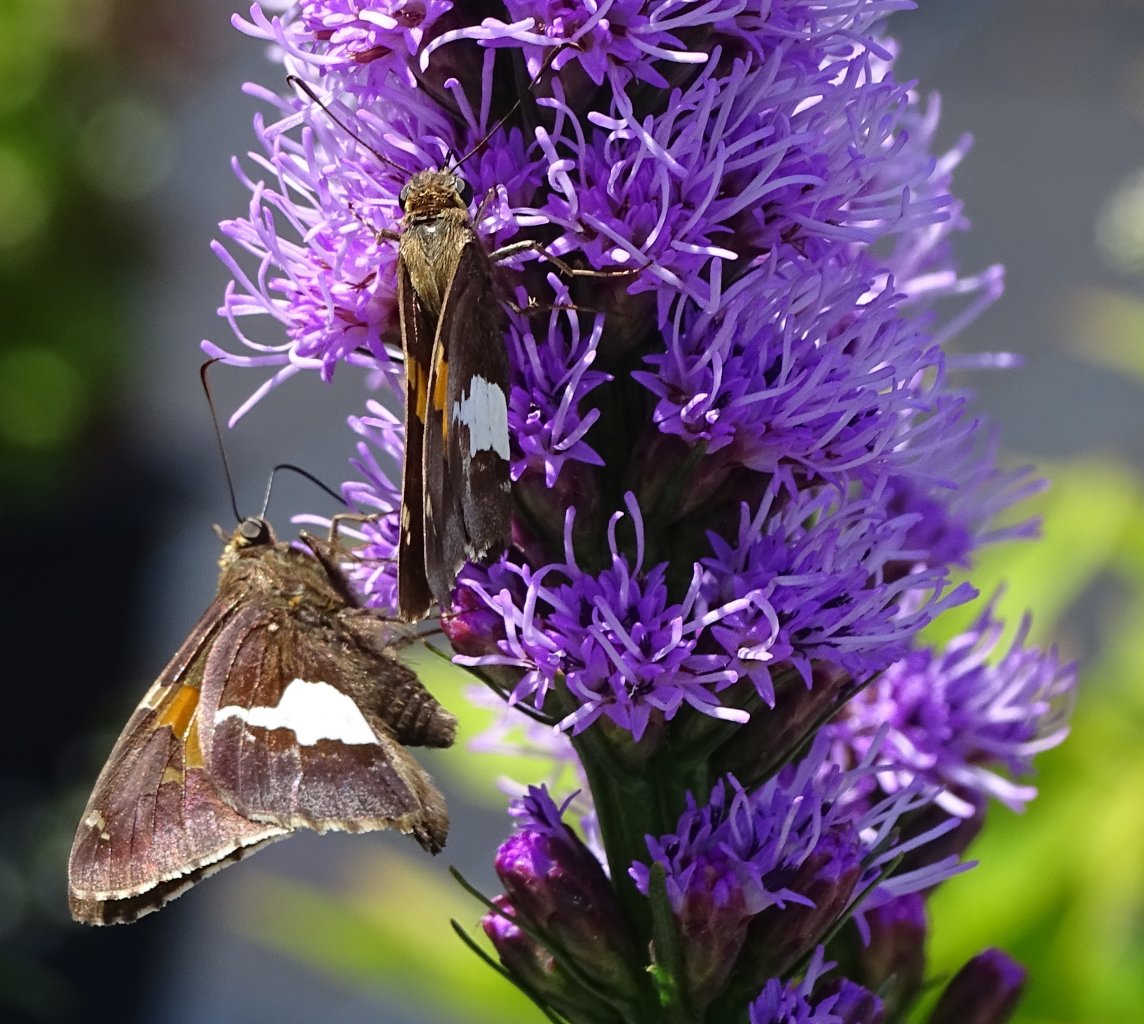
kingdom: Animalia
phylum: Arthropoda
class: Insecta
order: Lepidoptera
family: Hesperiidae
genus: Epargyreus
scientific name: Epargyreus clarus
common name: Silver-spotted Skipper
